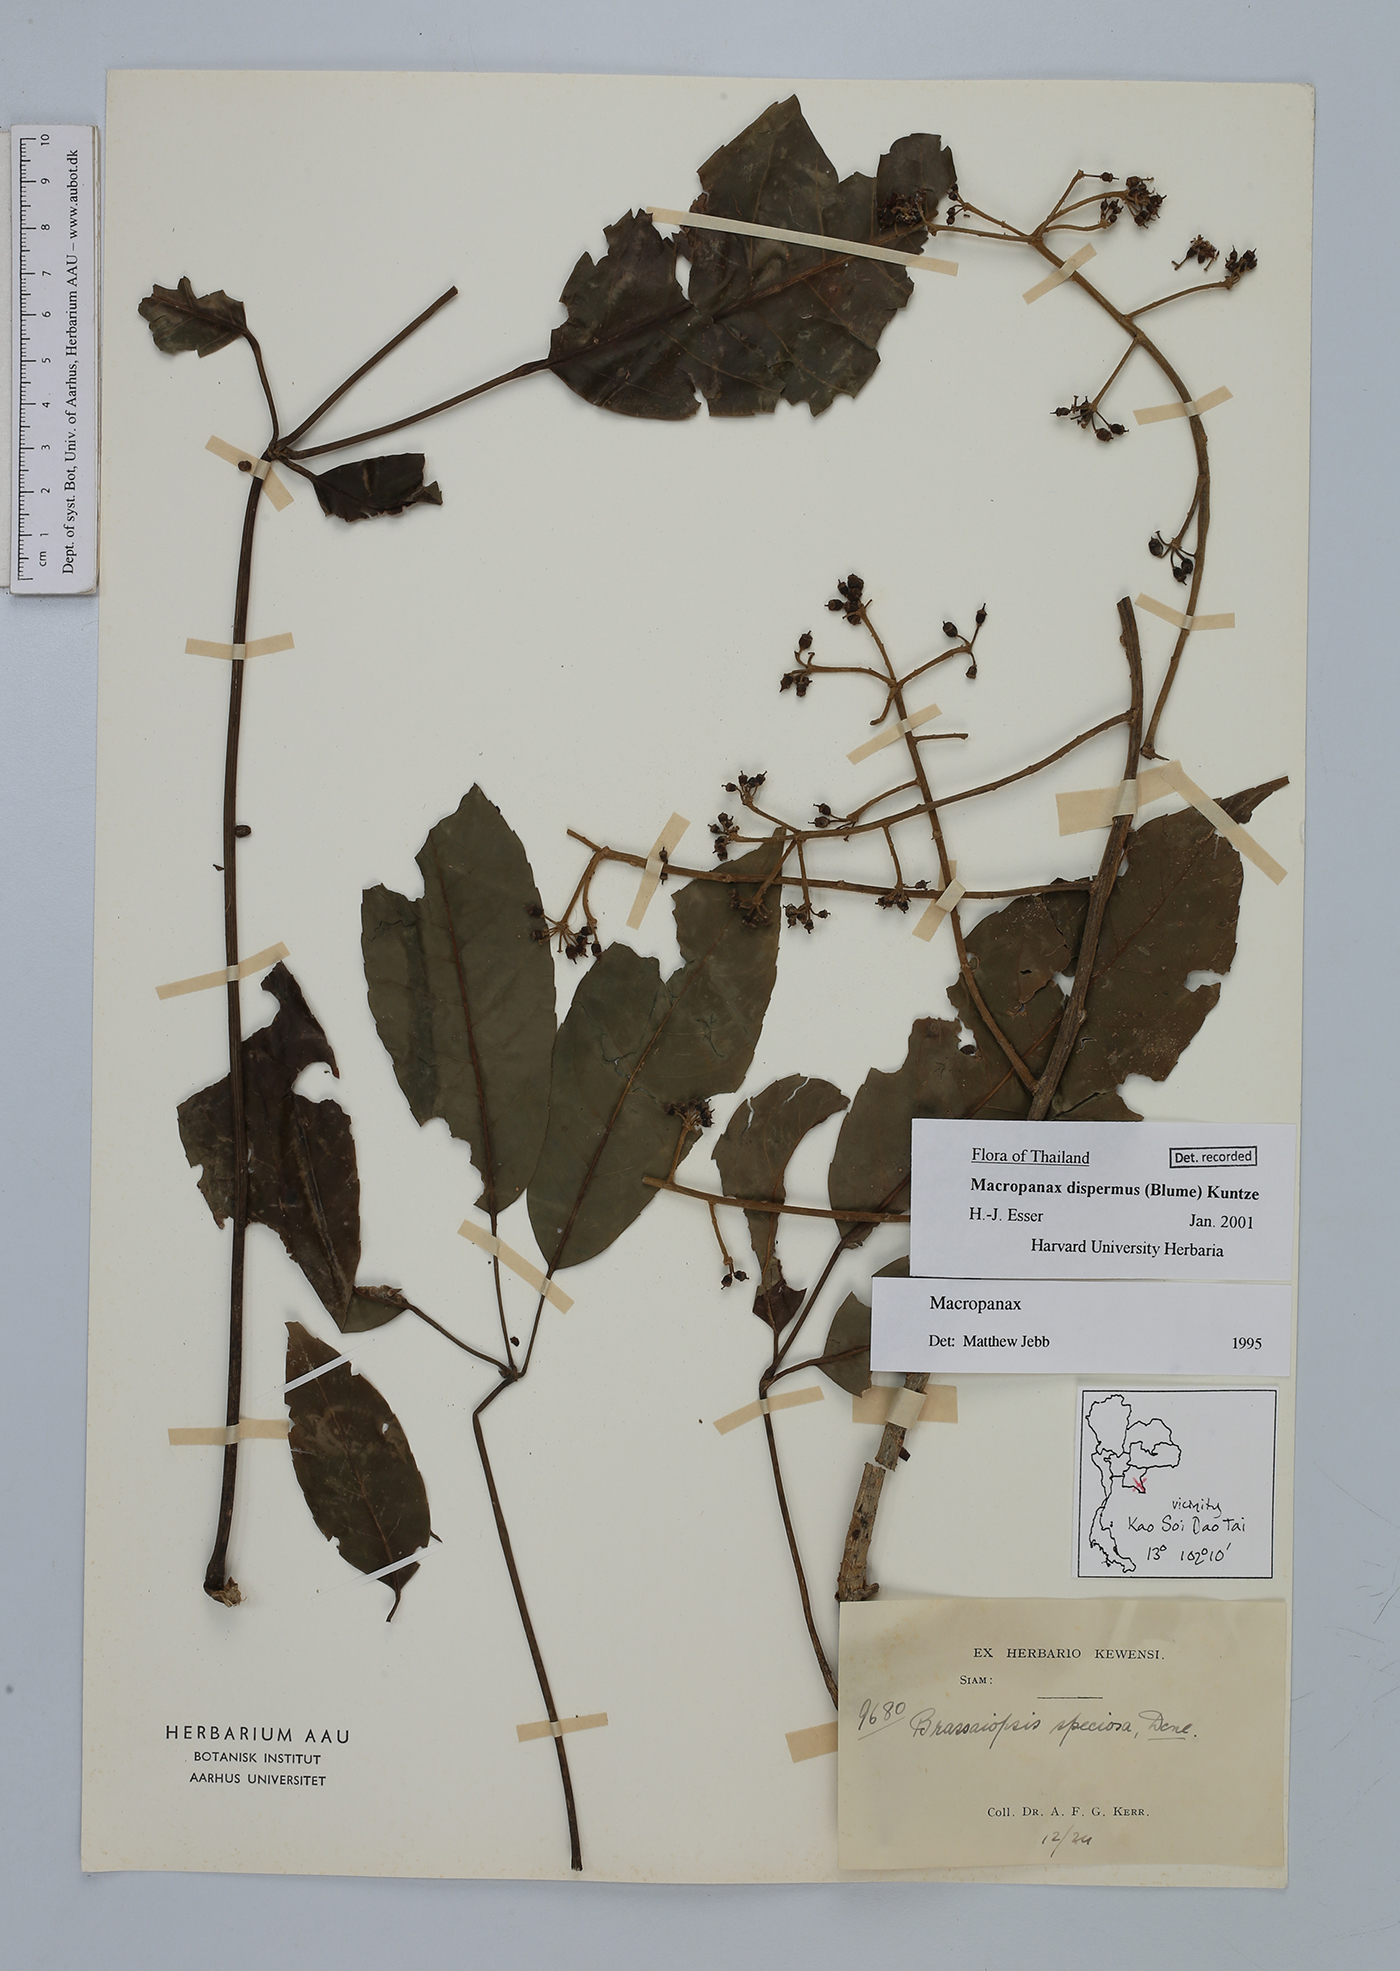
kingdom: Plantae
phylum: Tracheophyta
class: Magnoliopsida
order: Apiales
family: Araliaceae
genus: Macropanax
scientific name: Macropanax dispermus
